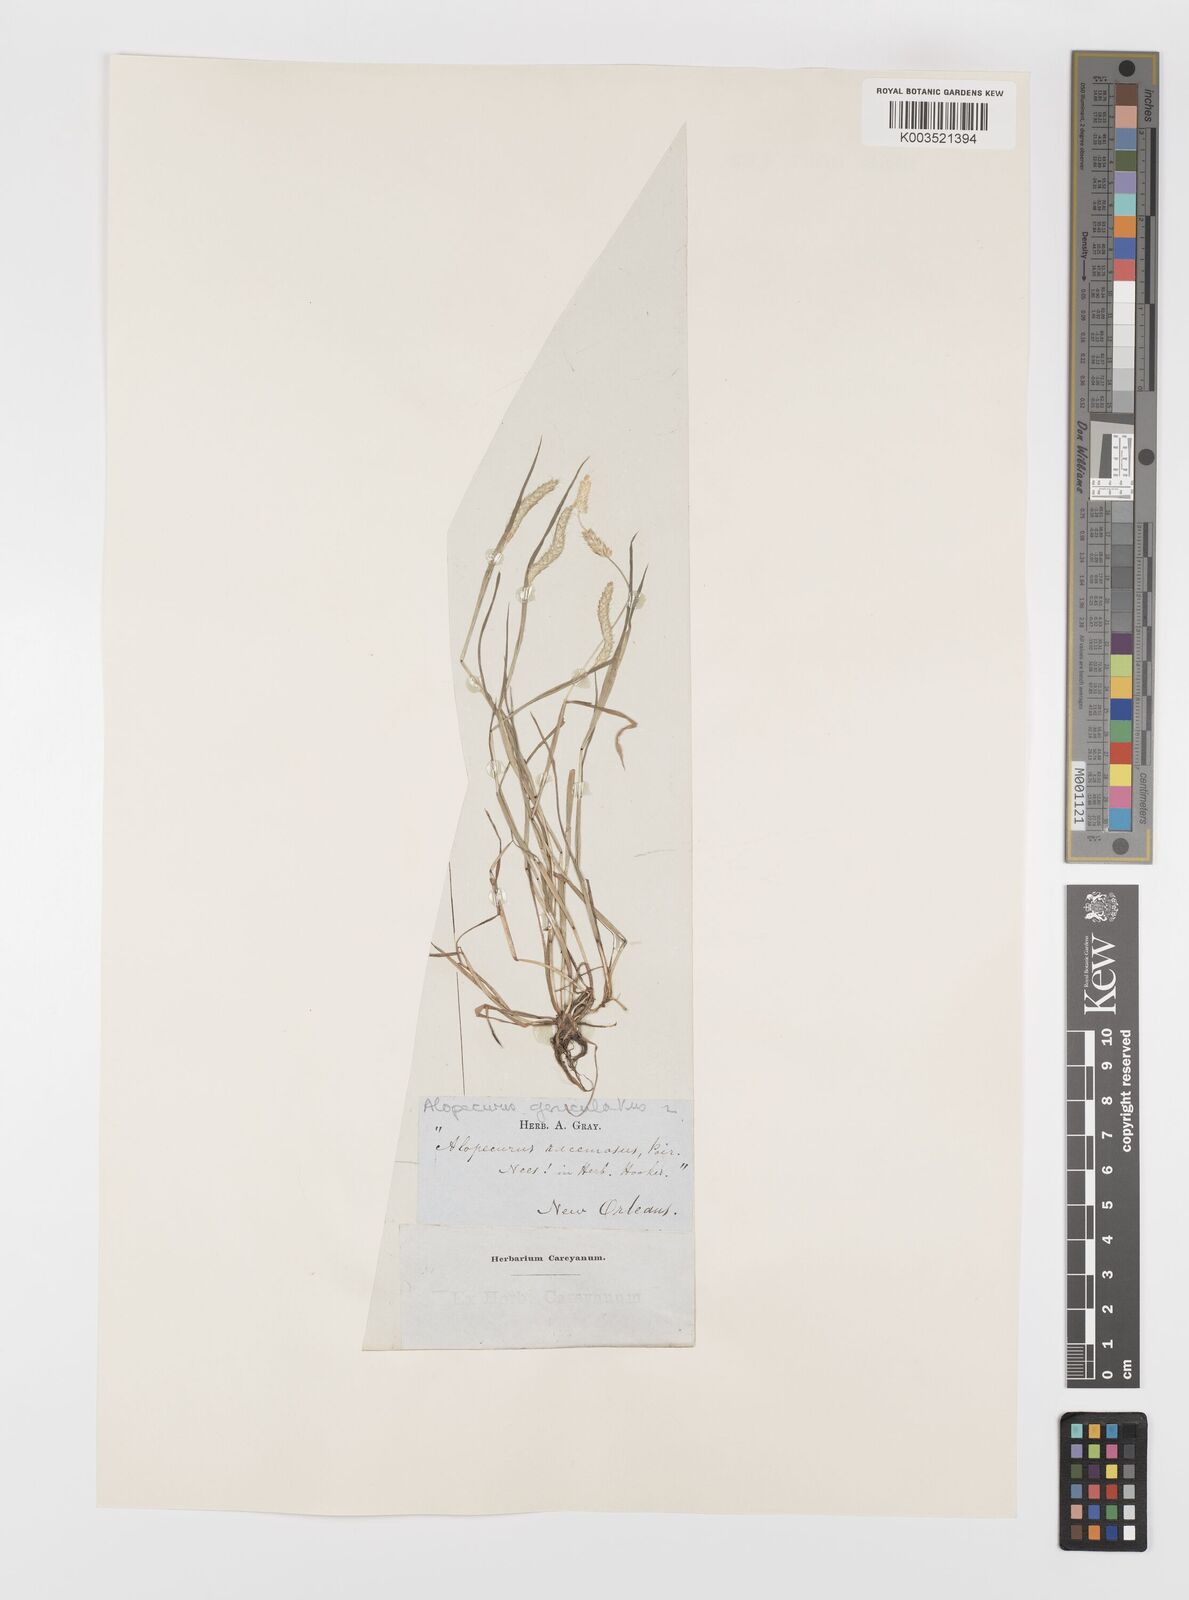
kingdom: Plantae
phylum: Tracheophyta
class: Liliopsida
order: Poales
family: Poaceae
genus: Alopecurus
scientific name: Alopecurus geniculatus
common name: Water foxtail
